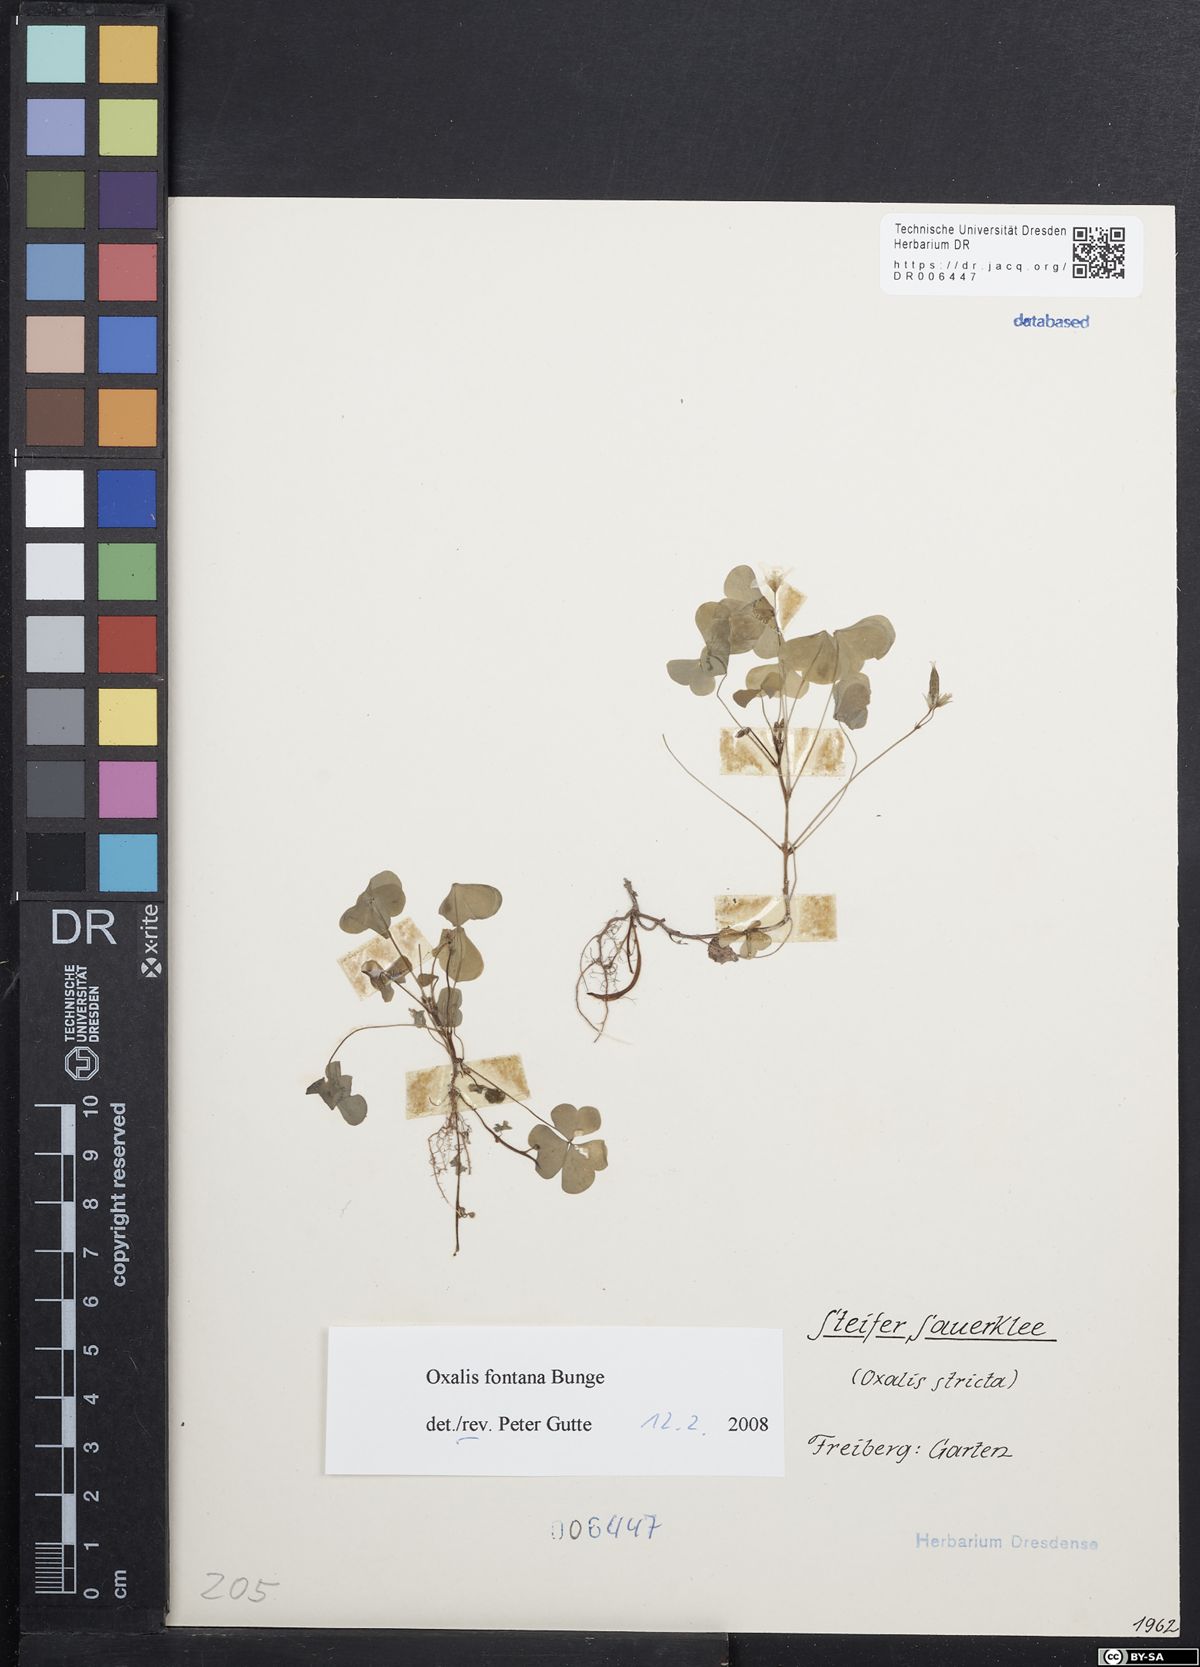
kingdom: Plantae
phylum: Tracheophyta
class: Magnoliopsida
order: Oxalidales
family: Oxalidaceae
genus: Oxalis
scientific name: Oxalis stricta
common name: Upright yellow-sorrel
